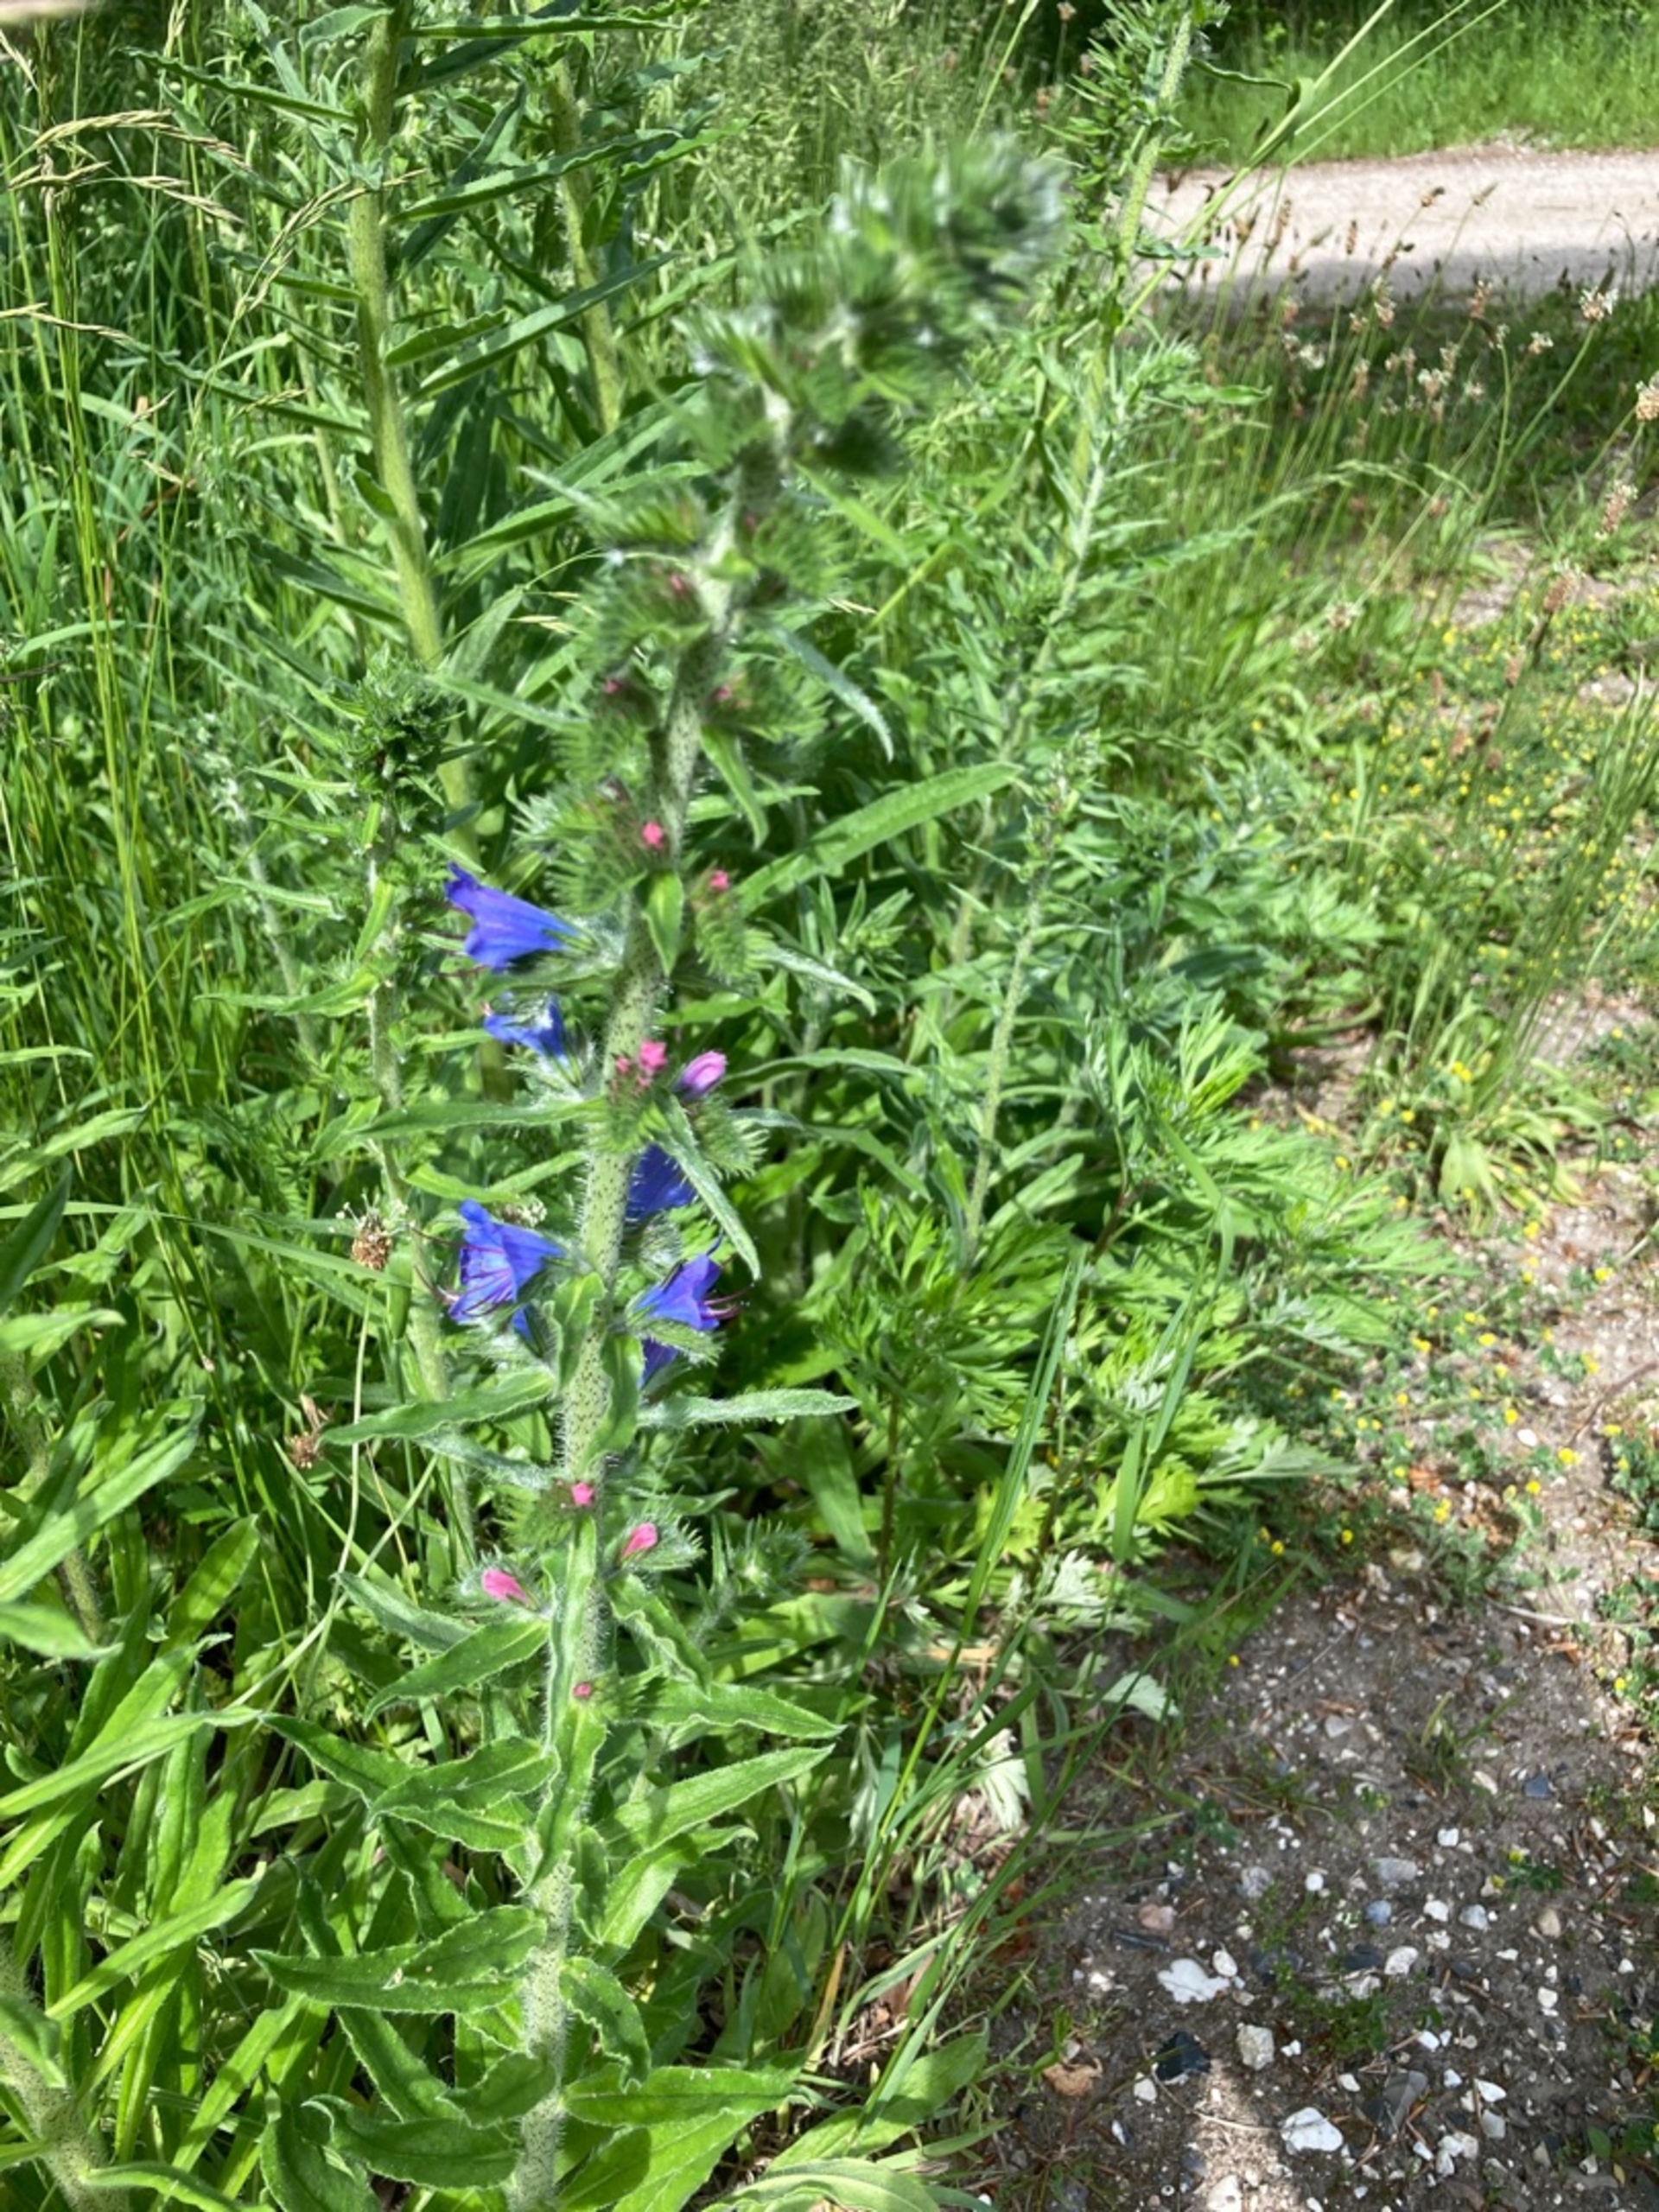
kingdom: Plantae
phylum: Tracheophyta
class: Magnoliopsida
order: Boraginales
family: Boraginaceae
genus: Echium
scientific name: Echium vulgare
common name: Slangehoved
